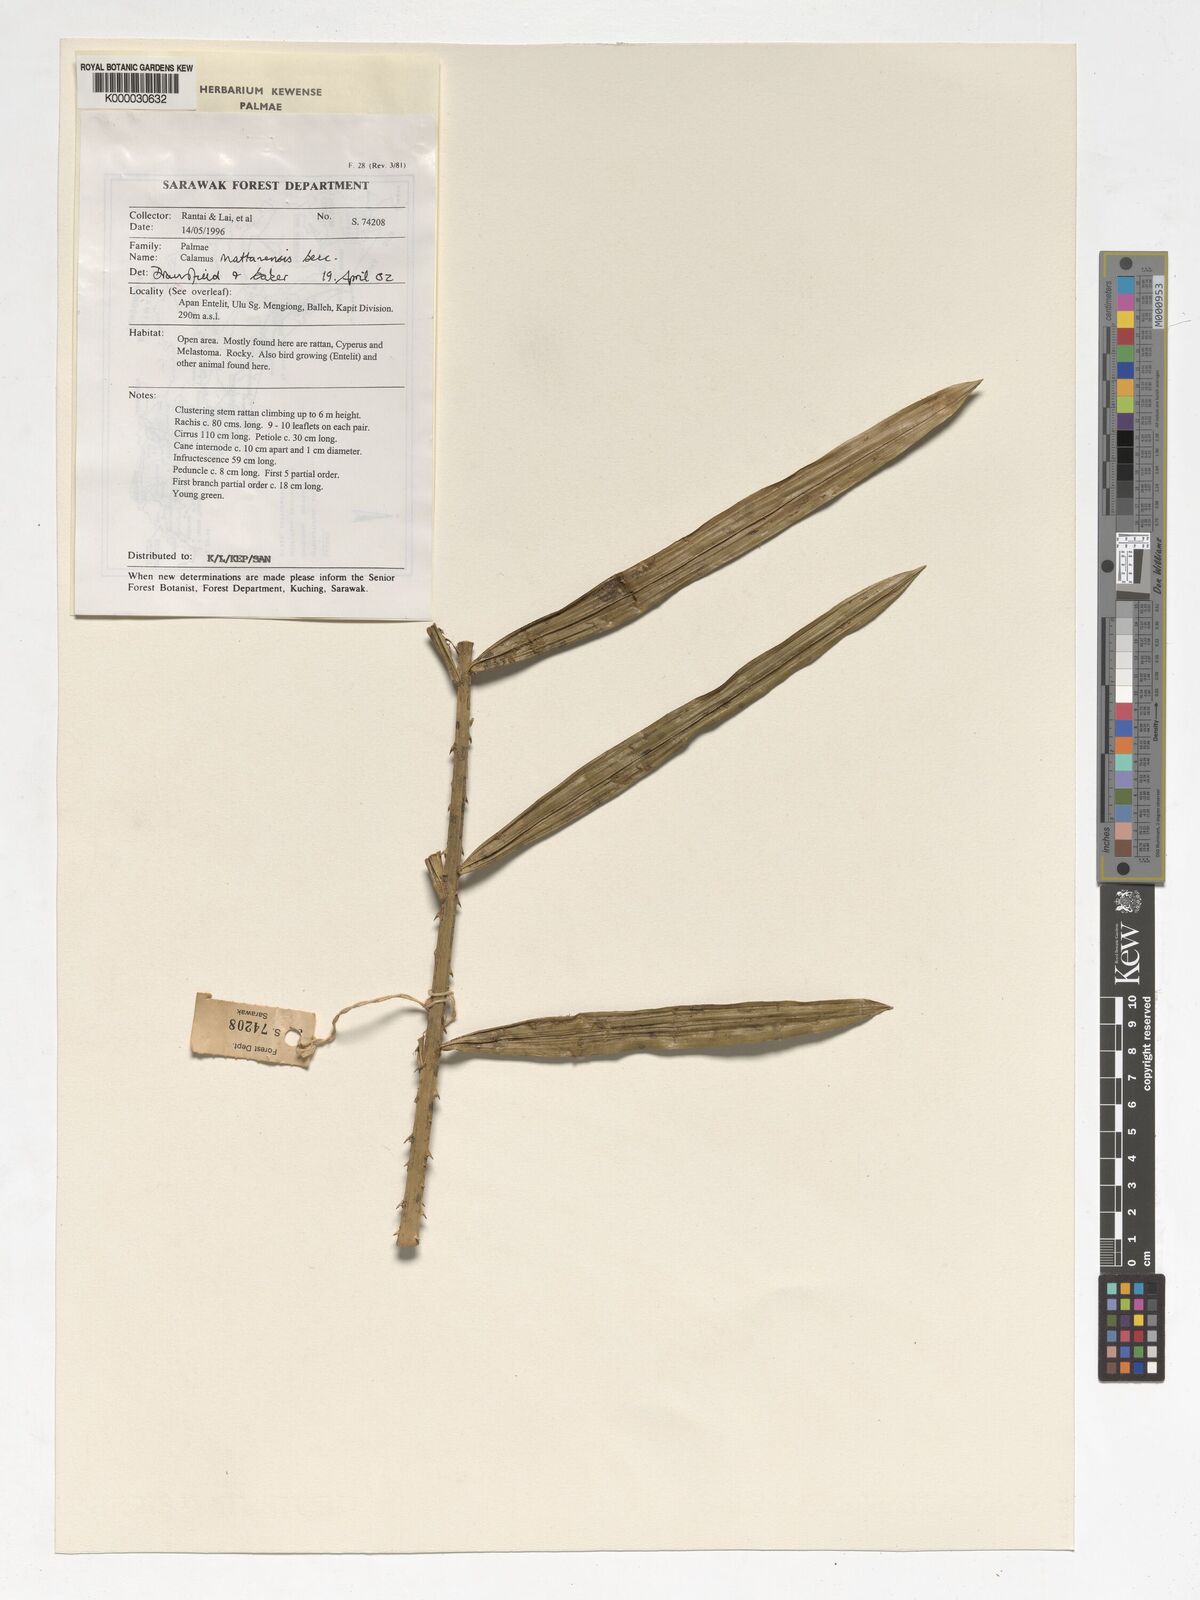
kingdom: Plantae
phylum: Tracheophyta
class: Liliopsida
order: Arecales
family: Arecaceae
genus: Calamus
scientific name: Calamus
